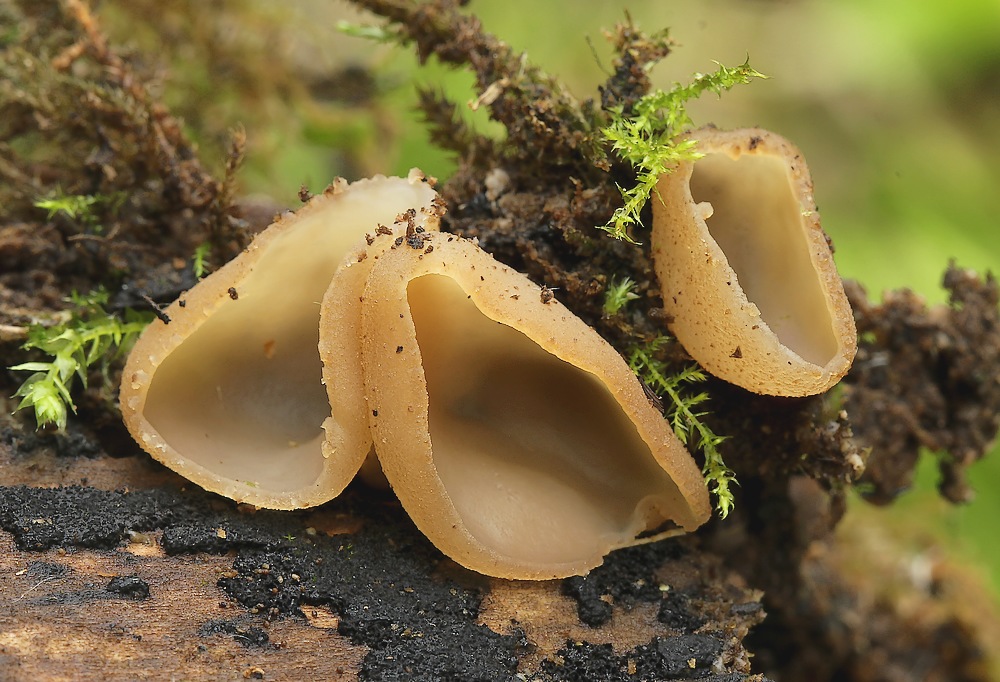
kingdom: Fungi
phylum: Ascomycota
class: Pezizomycetes
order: Pezizales
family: Pezizaceae
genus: Peziza
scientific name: Peziza varia
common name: Ved-bægersvamp
